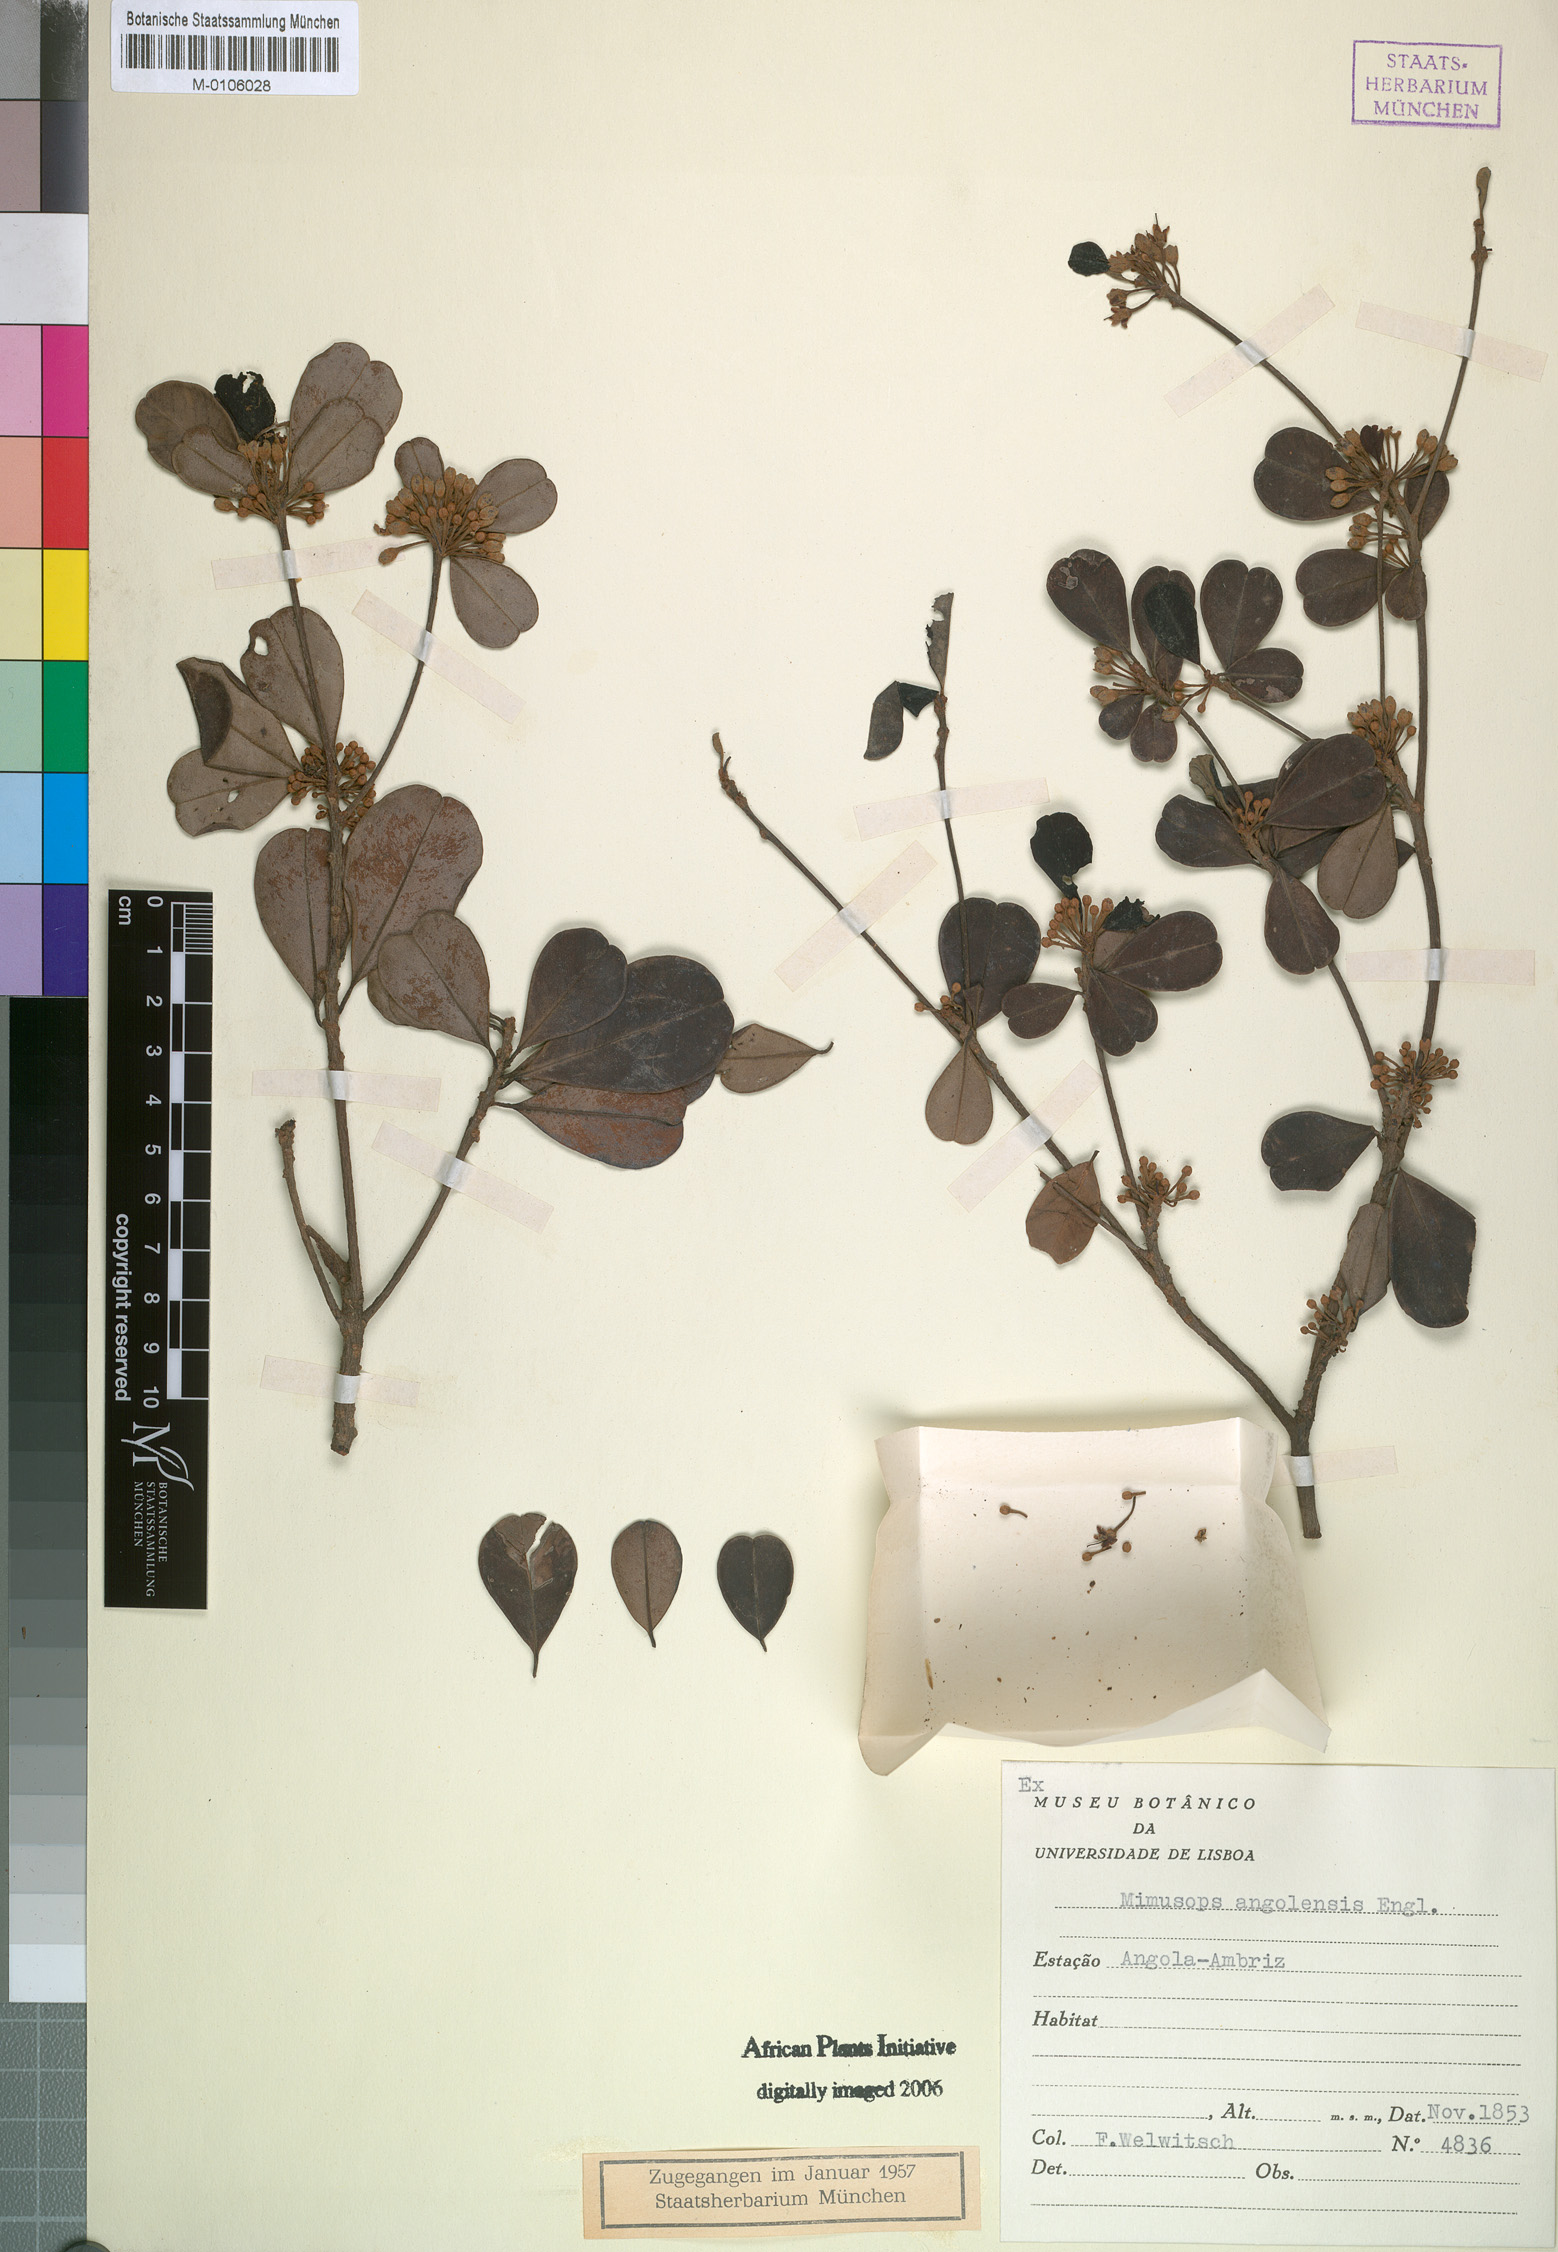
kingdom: Plantae
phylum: Tracheophyta
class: Magnoliopsida
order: Ericales
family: Sapotaceae
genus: Manilkara
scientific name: Manilkara obovata
